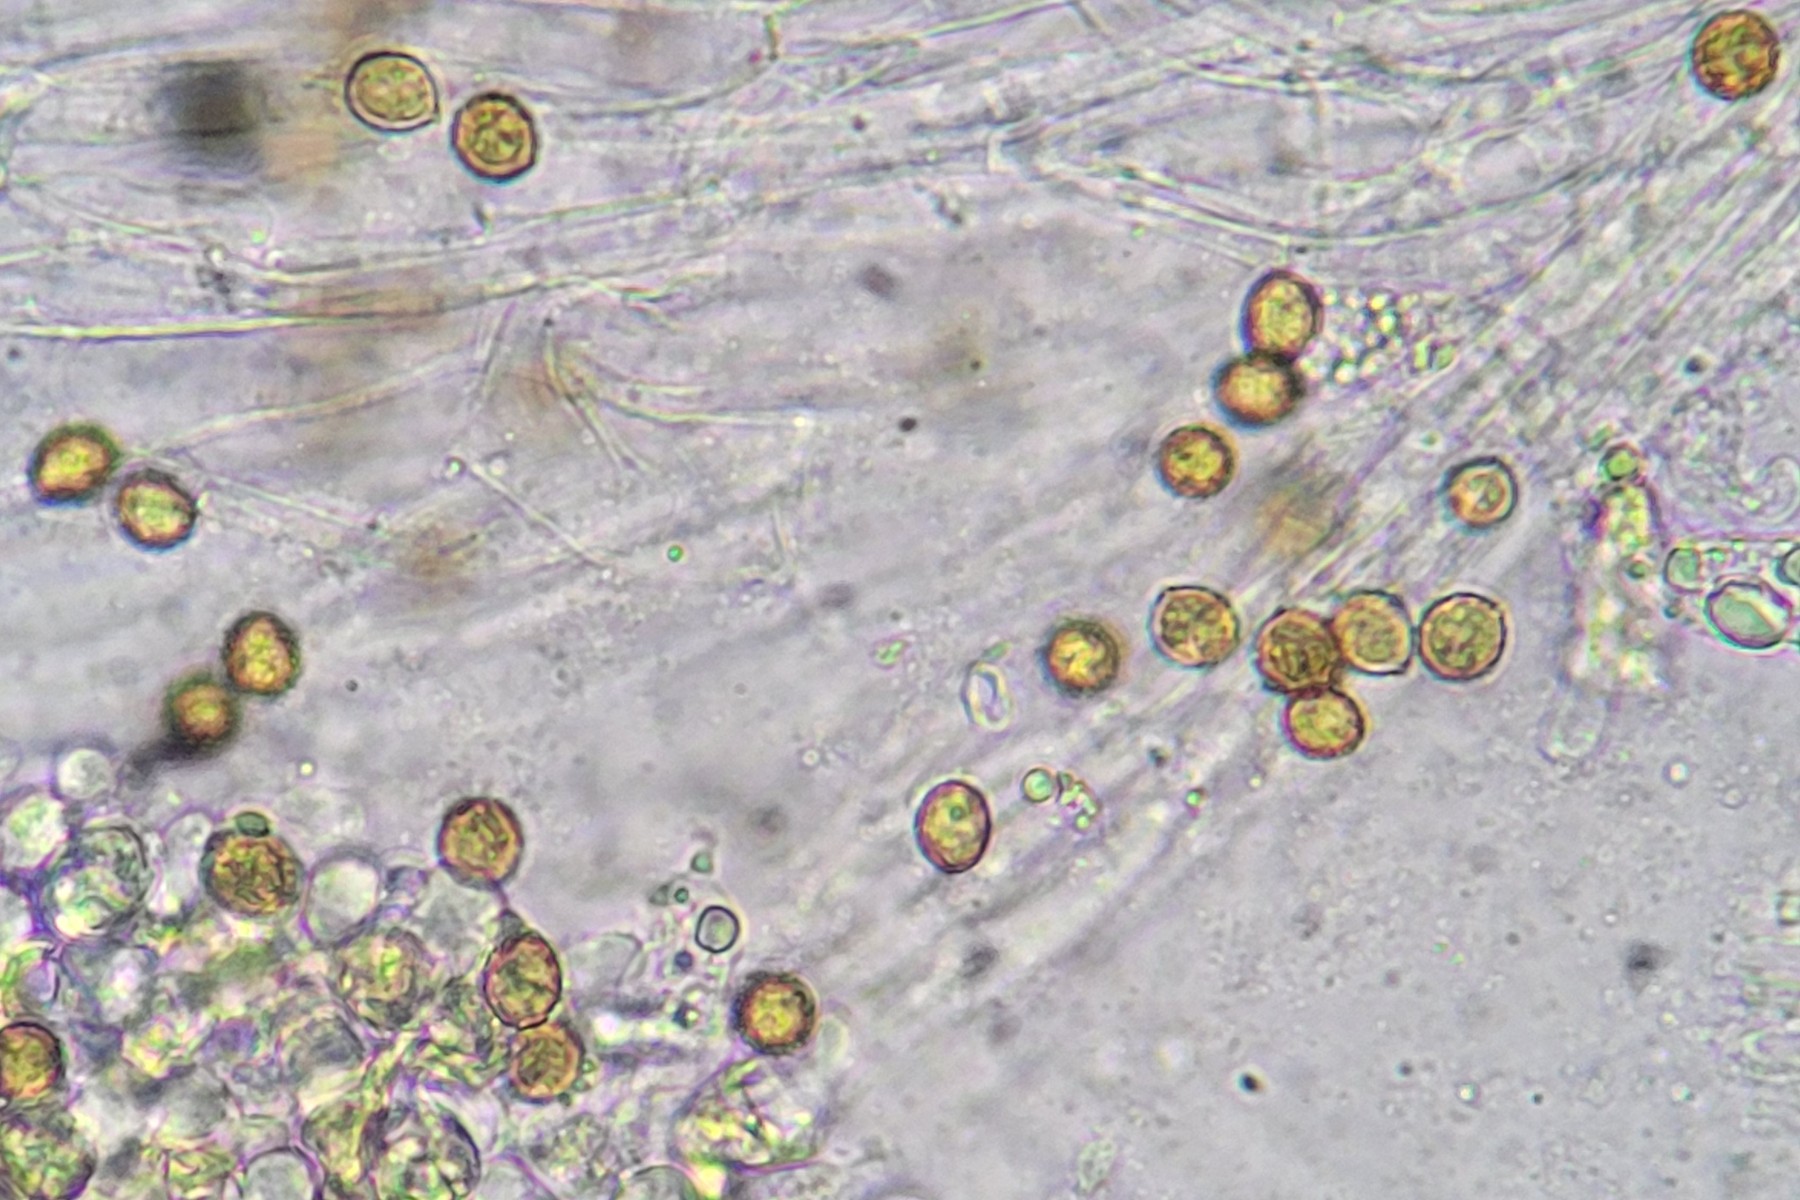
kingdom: Fungi
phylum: Basidiomycota
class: Agaricomycetes
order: Agaricales
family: Cortinariaceae
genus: Cortinarius
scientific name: Cortinarius
